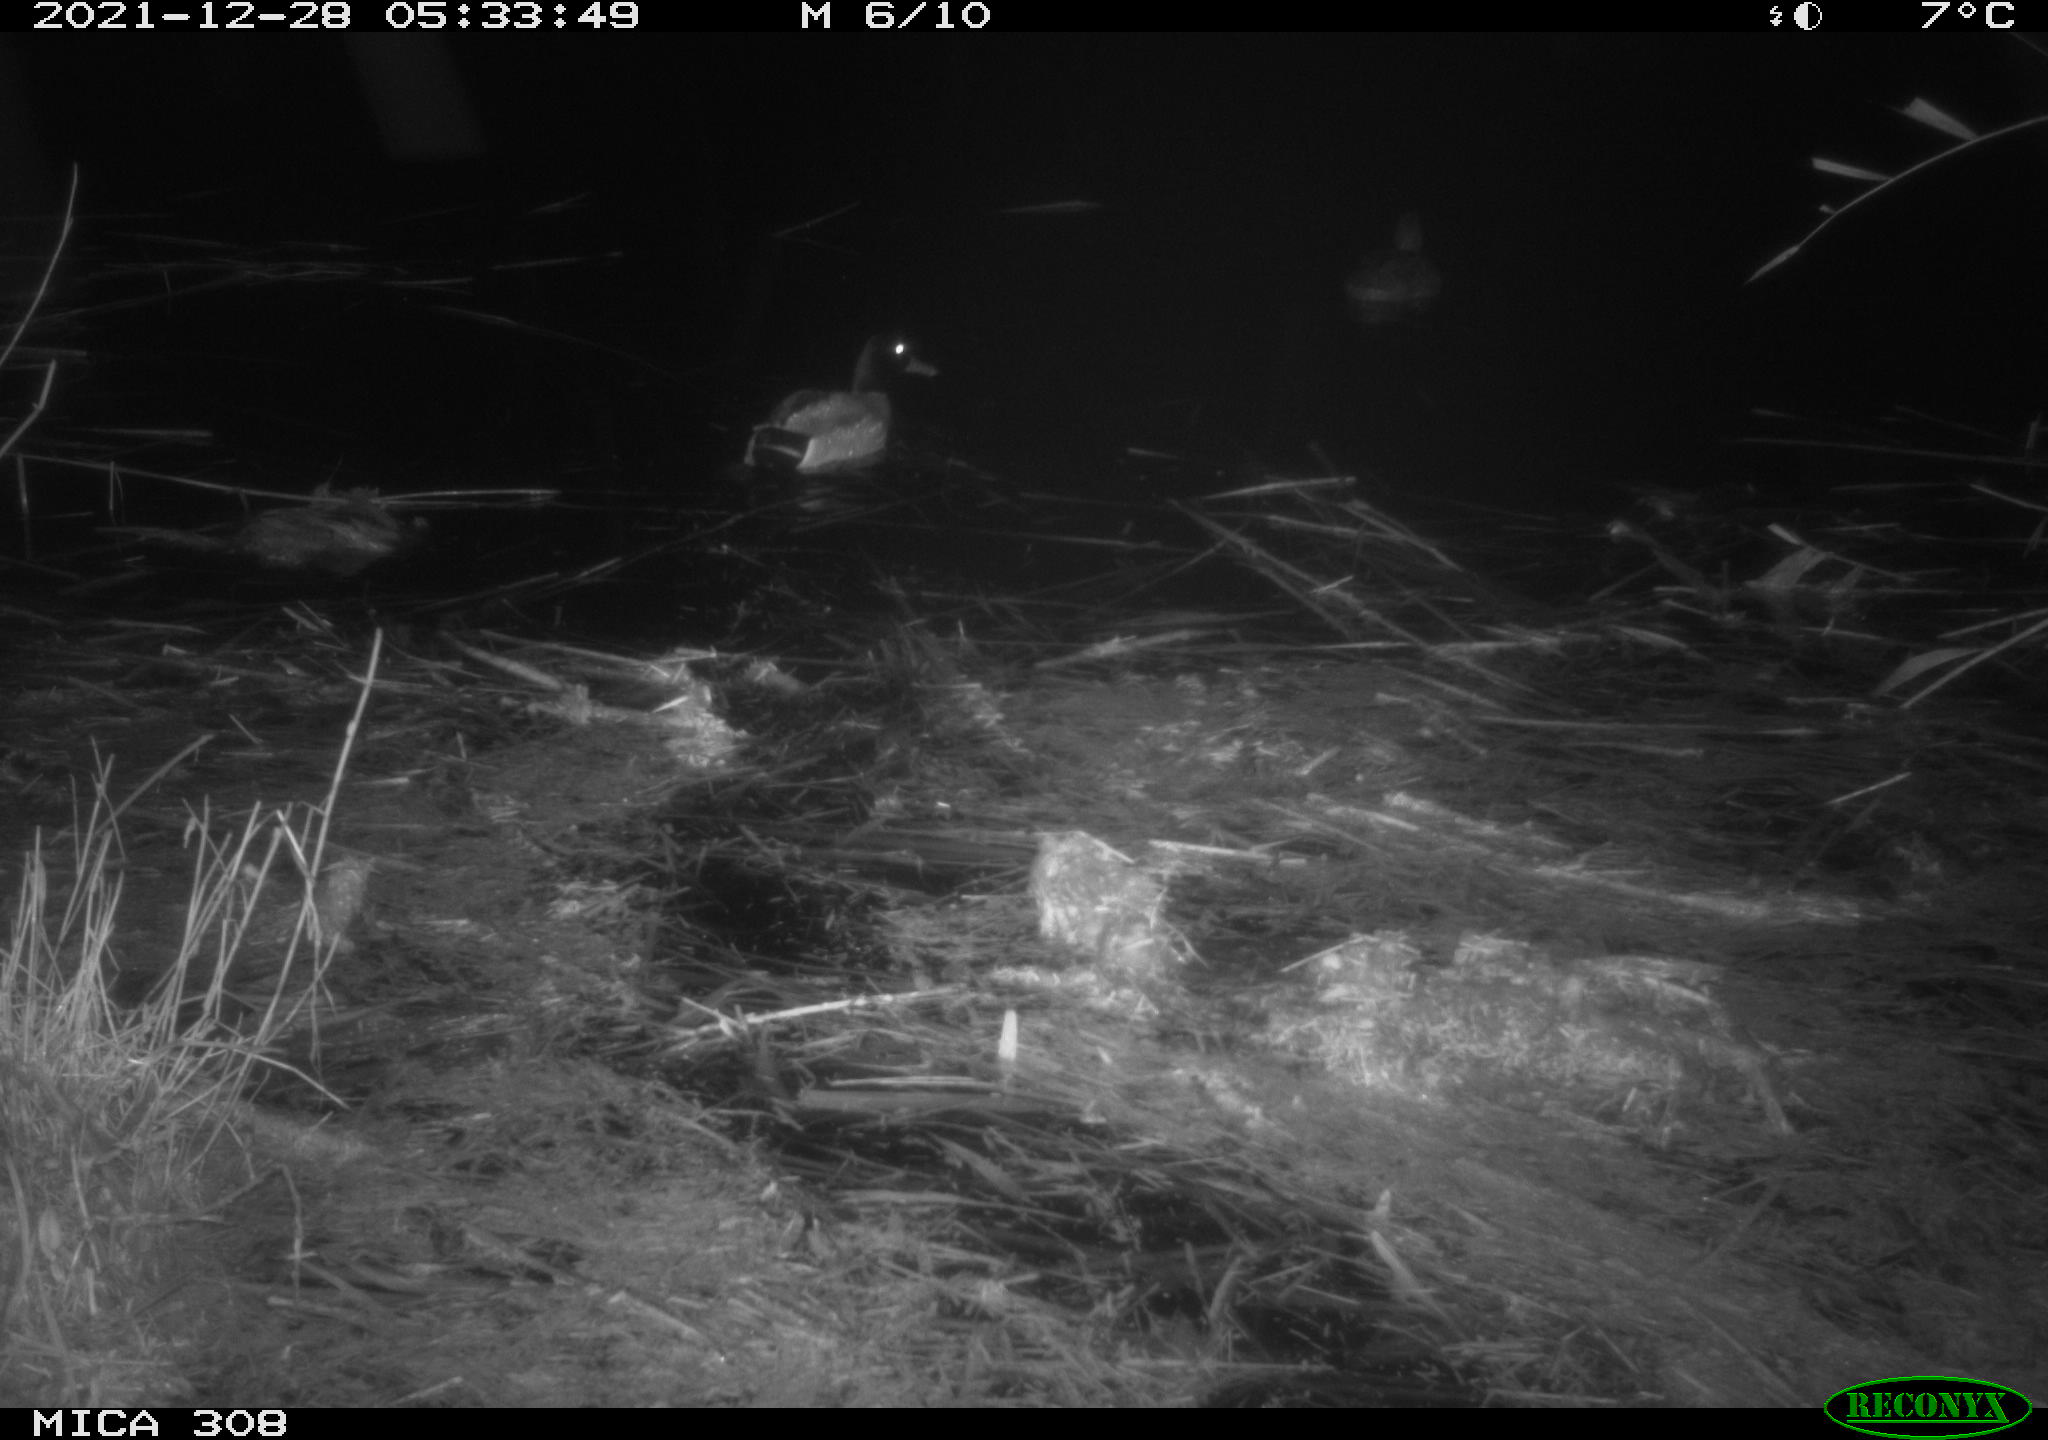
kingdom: Animalia
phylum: Chordata
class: Aves
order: Anseriformes
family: Anatidae
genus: Anas
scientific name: Anas platyrhynchos
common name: Mallard
